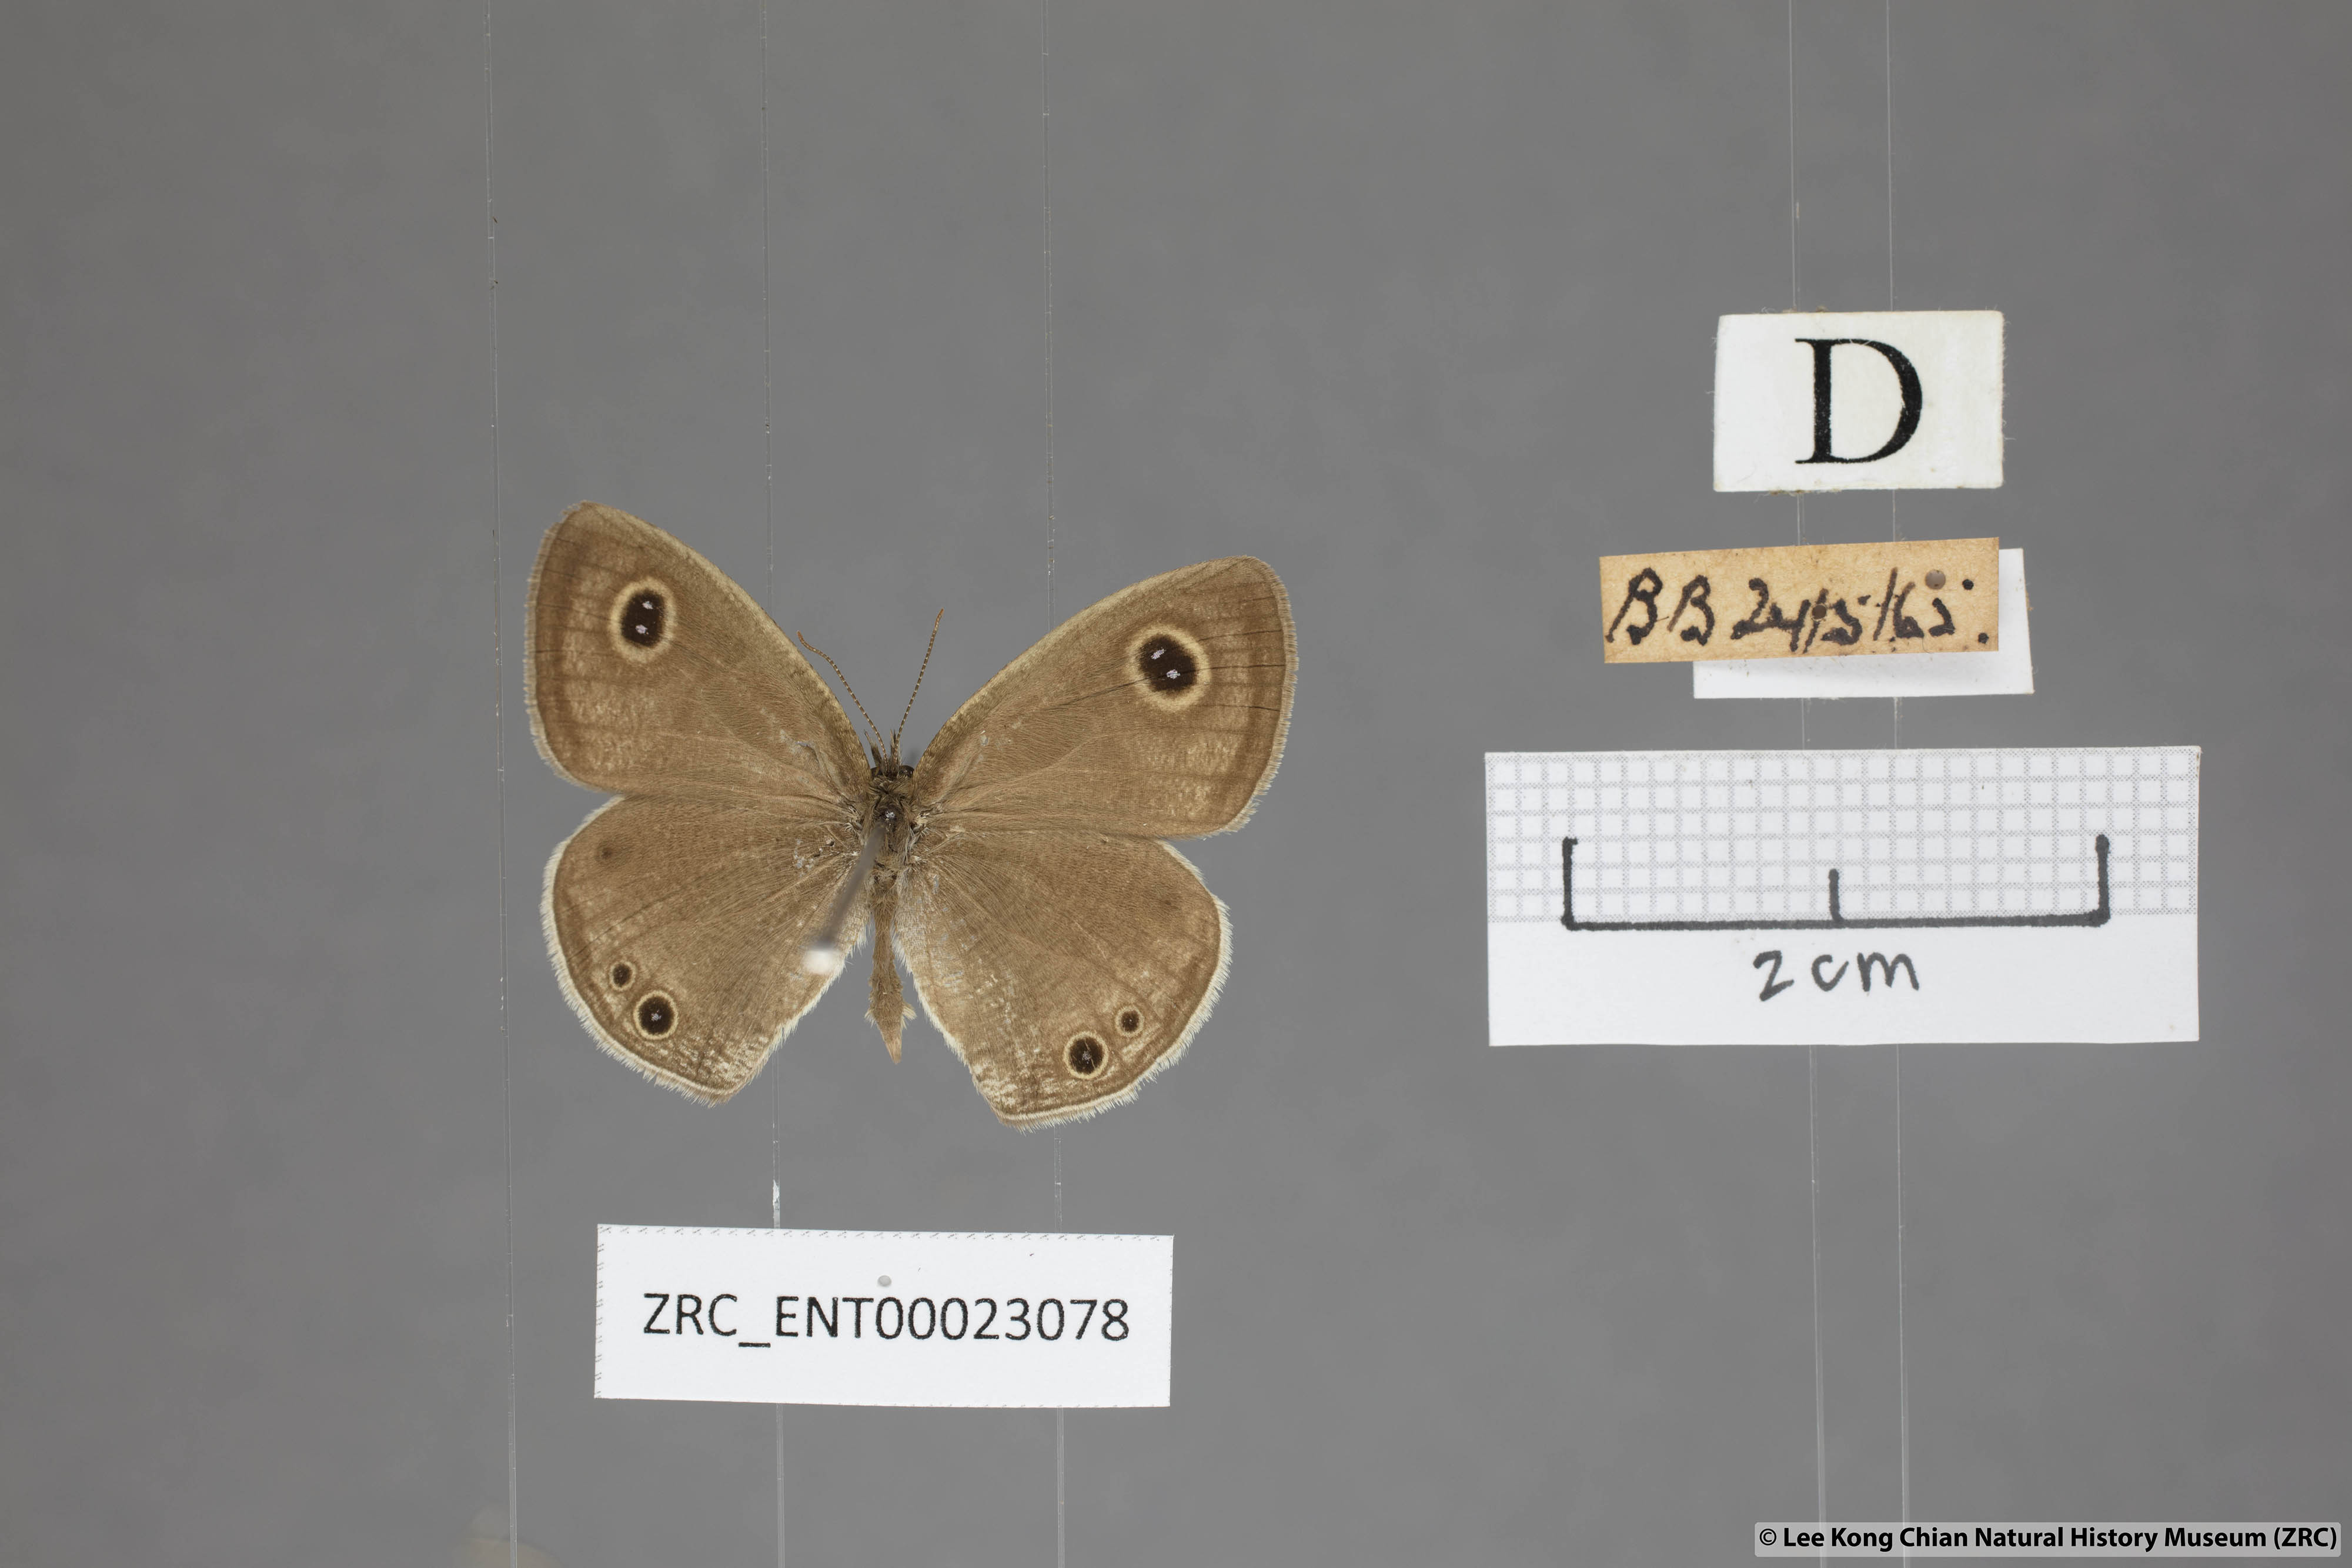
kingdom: Animalia
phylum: Arthropoda
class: Insecta
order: Lepidoptera
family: Nymphalidae
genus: Ypthima
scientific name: Ypthima huebneri
